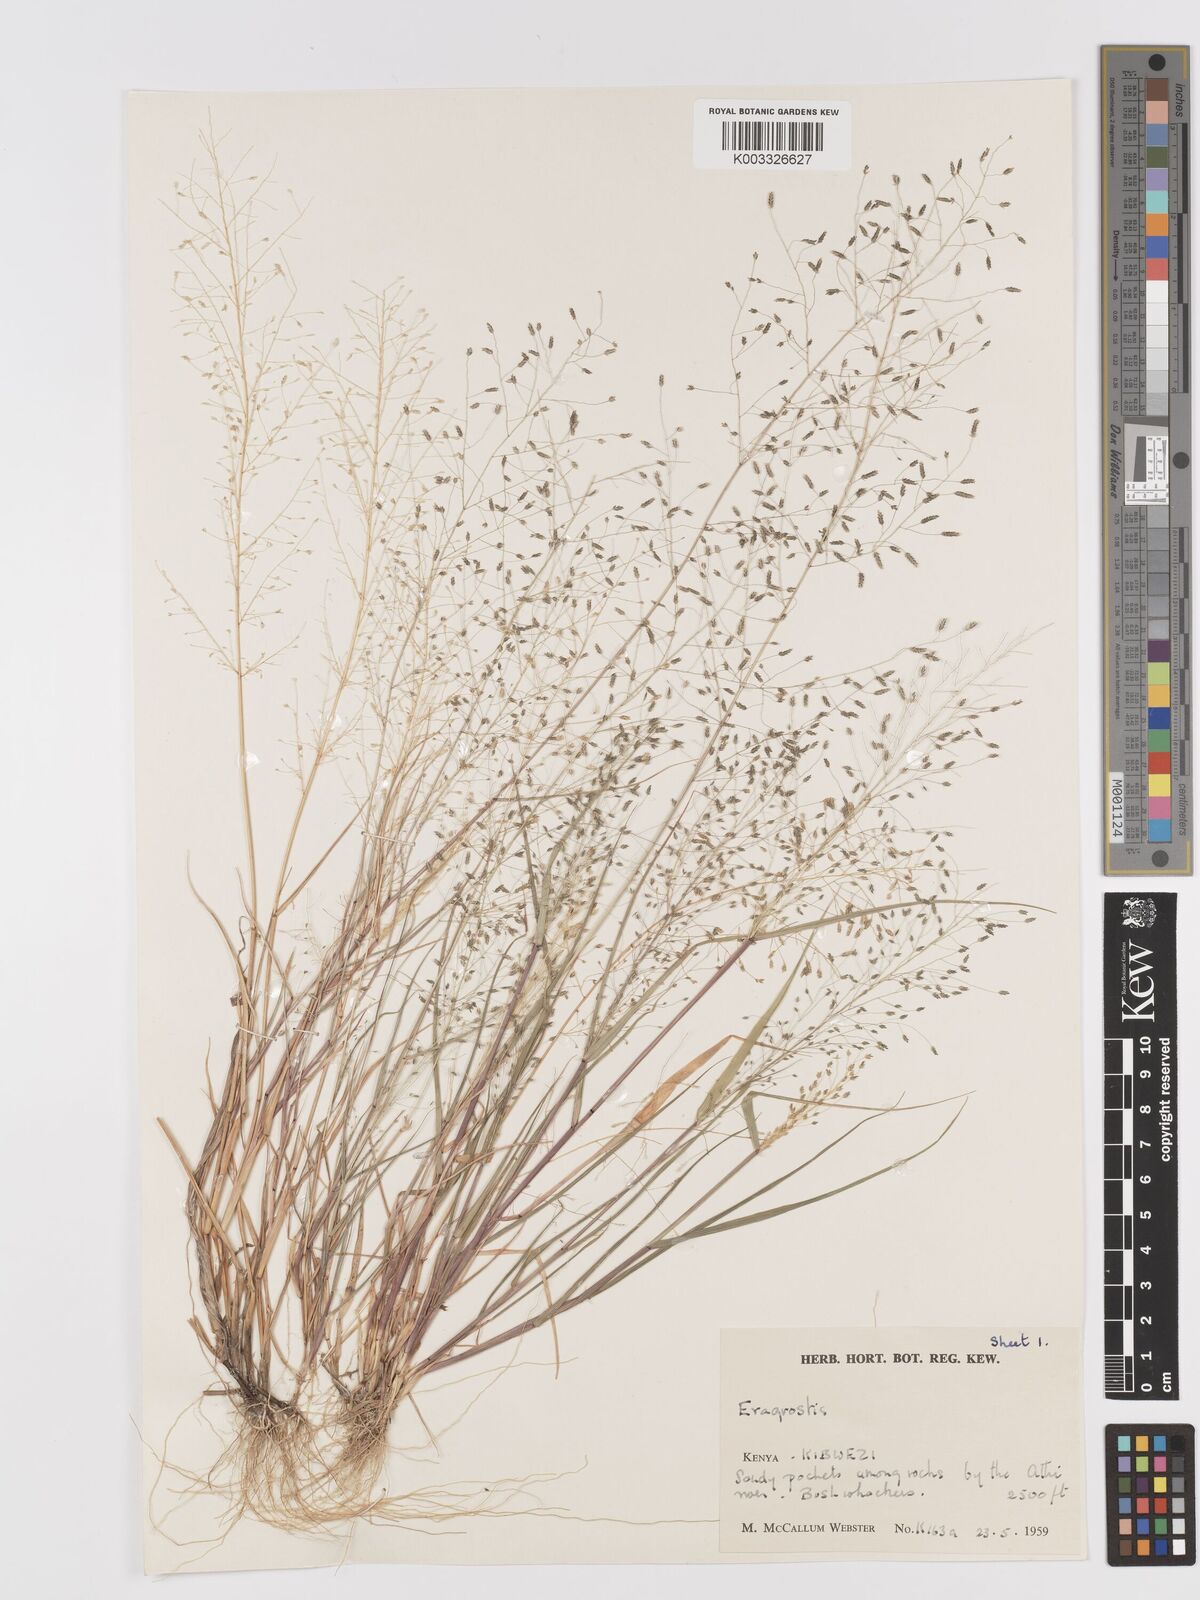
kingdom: Plantae
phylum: Tracheophyta
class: Liliopsida
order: Poales
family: Poaceae
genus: Eragrostis
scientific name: Eragrostis macilenta
